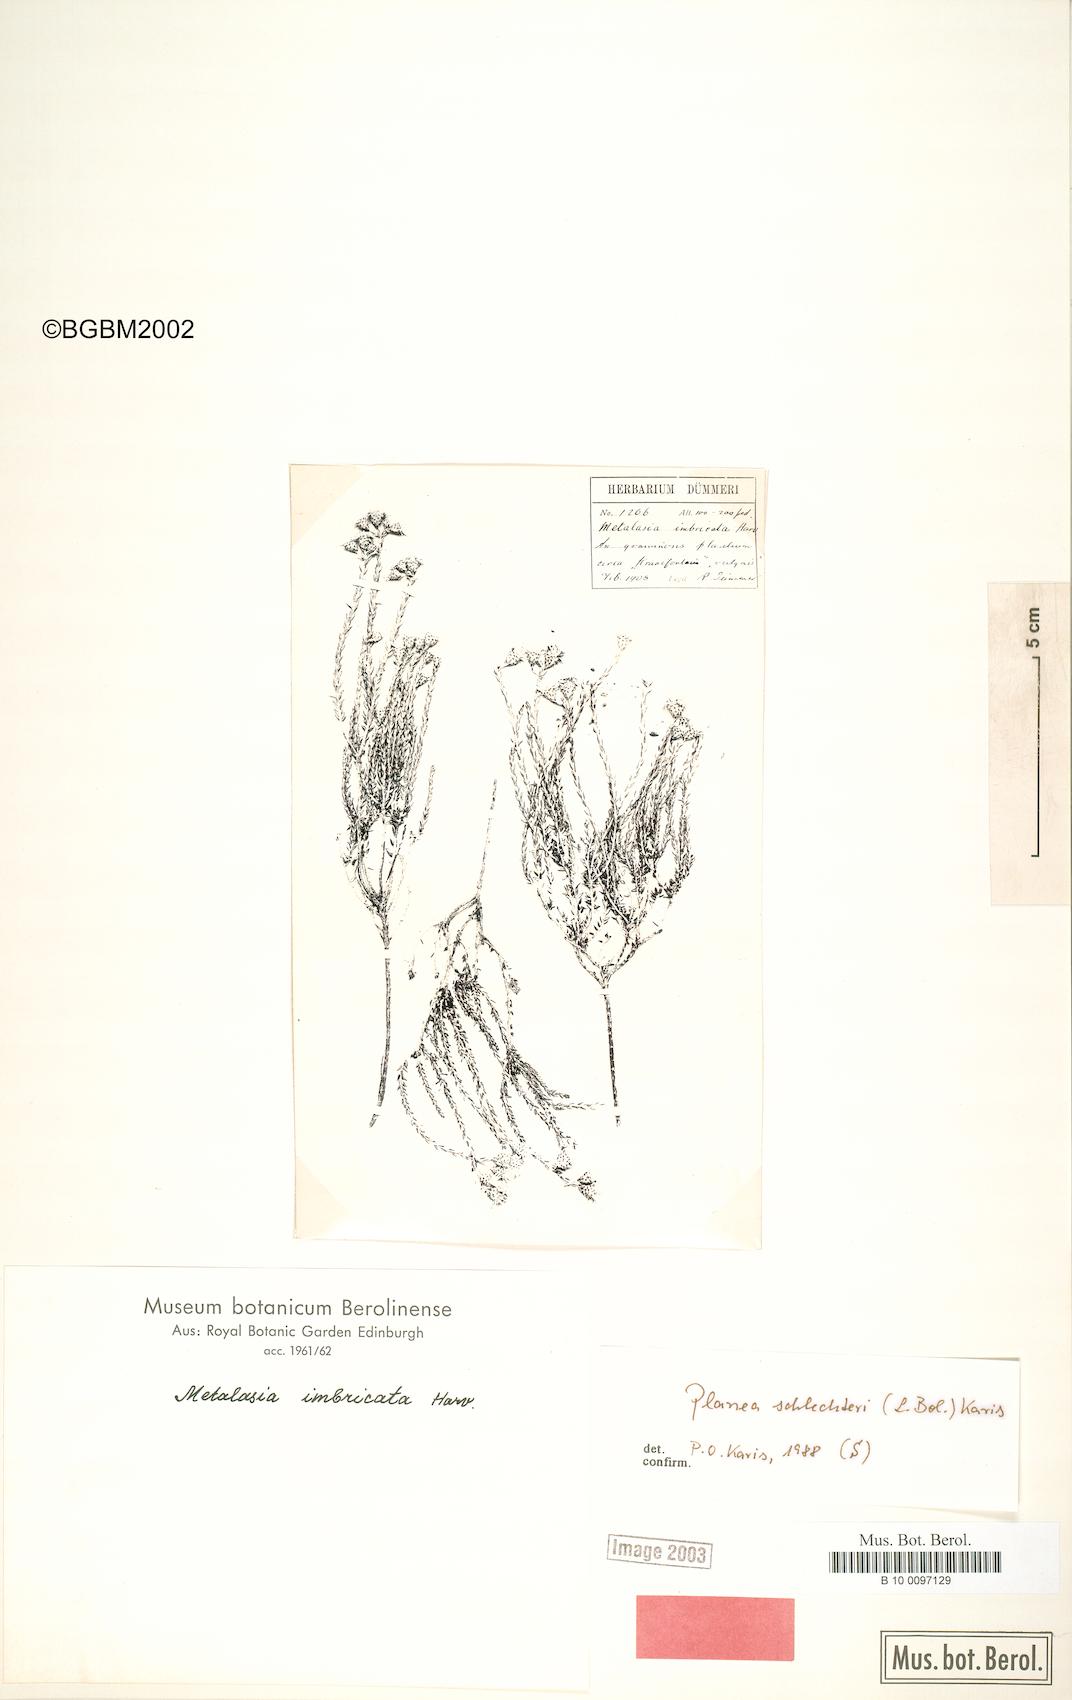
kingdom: Plantae
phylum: Tracheophyta
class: Magnoliopsida
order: Asterales
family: Asteraceae
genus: Planea
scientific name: Planea schlechteri
